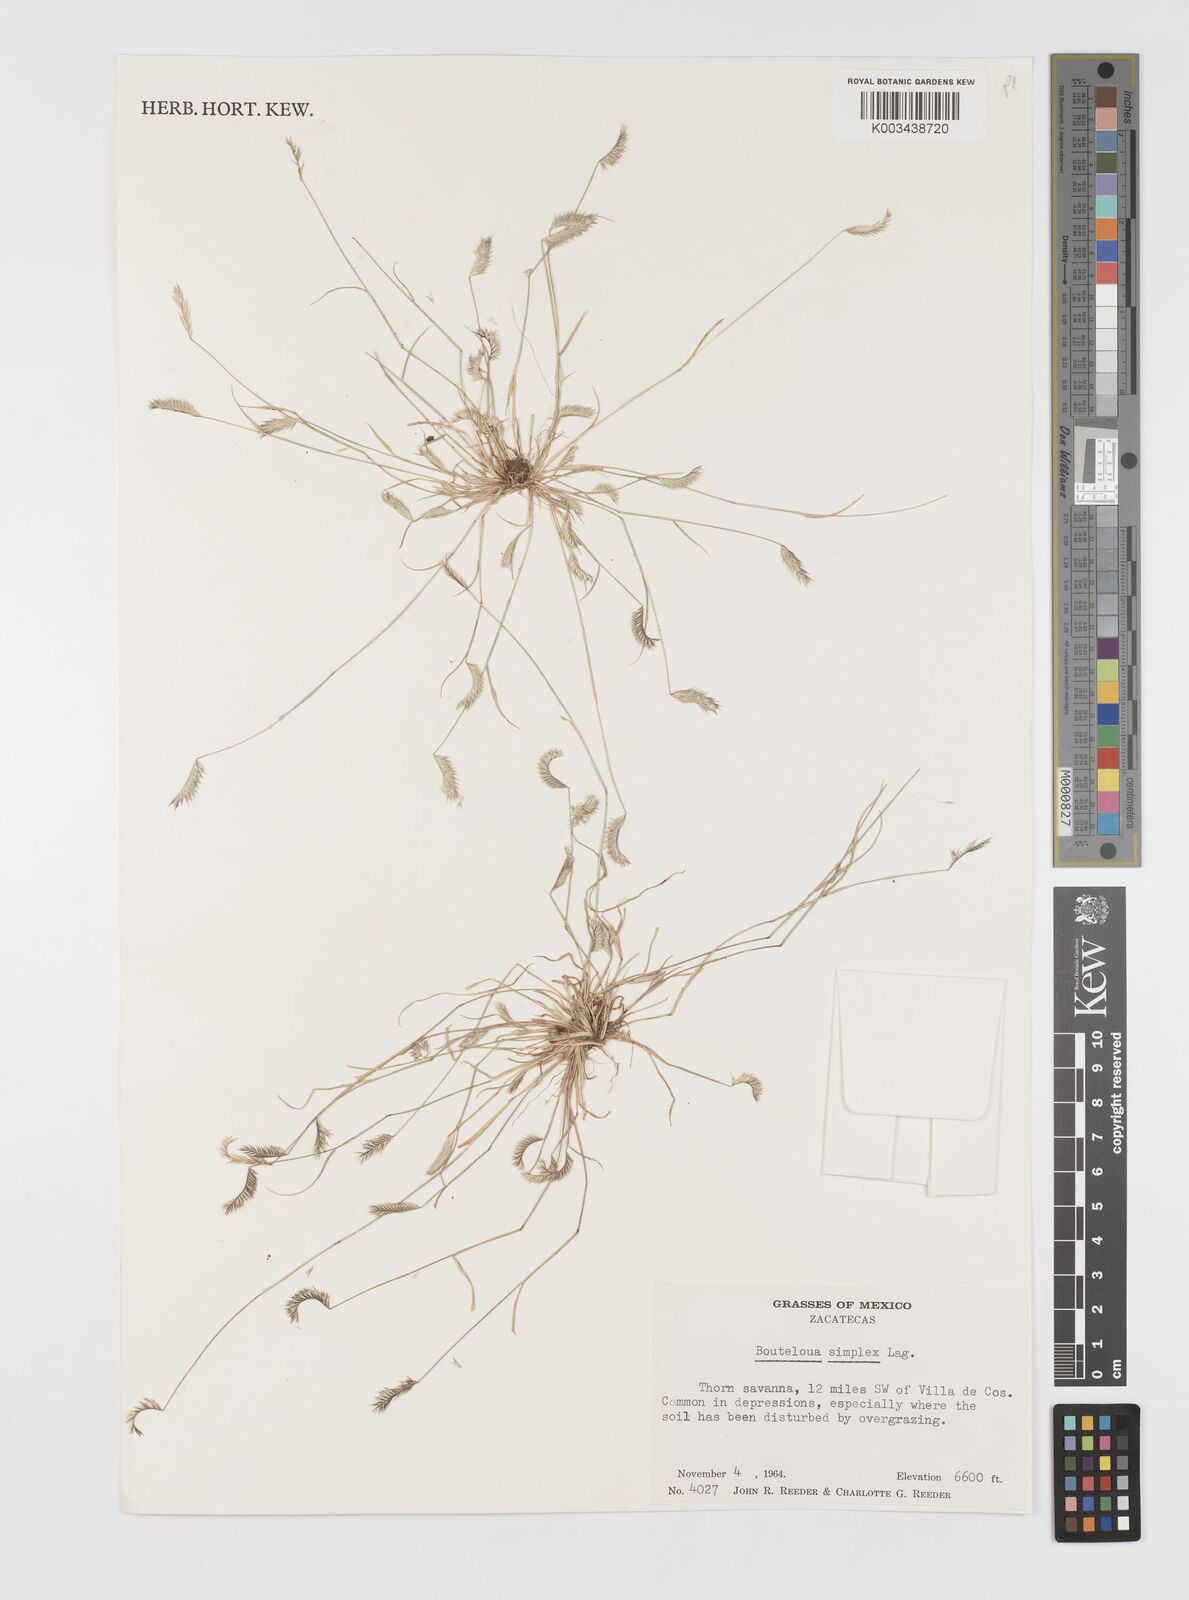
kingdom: Plantae
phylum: Tracheophyta
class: Liliopsida
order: Poales
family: Poaceae
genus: Bouteloua
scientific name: Bouteloua simplex
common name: Mat grama
